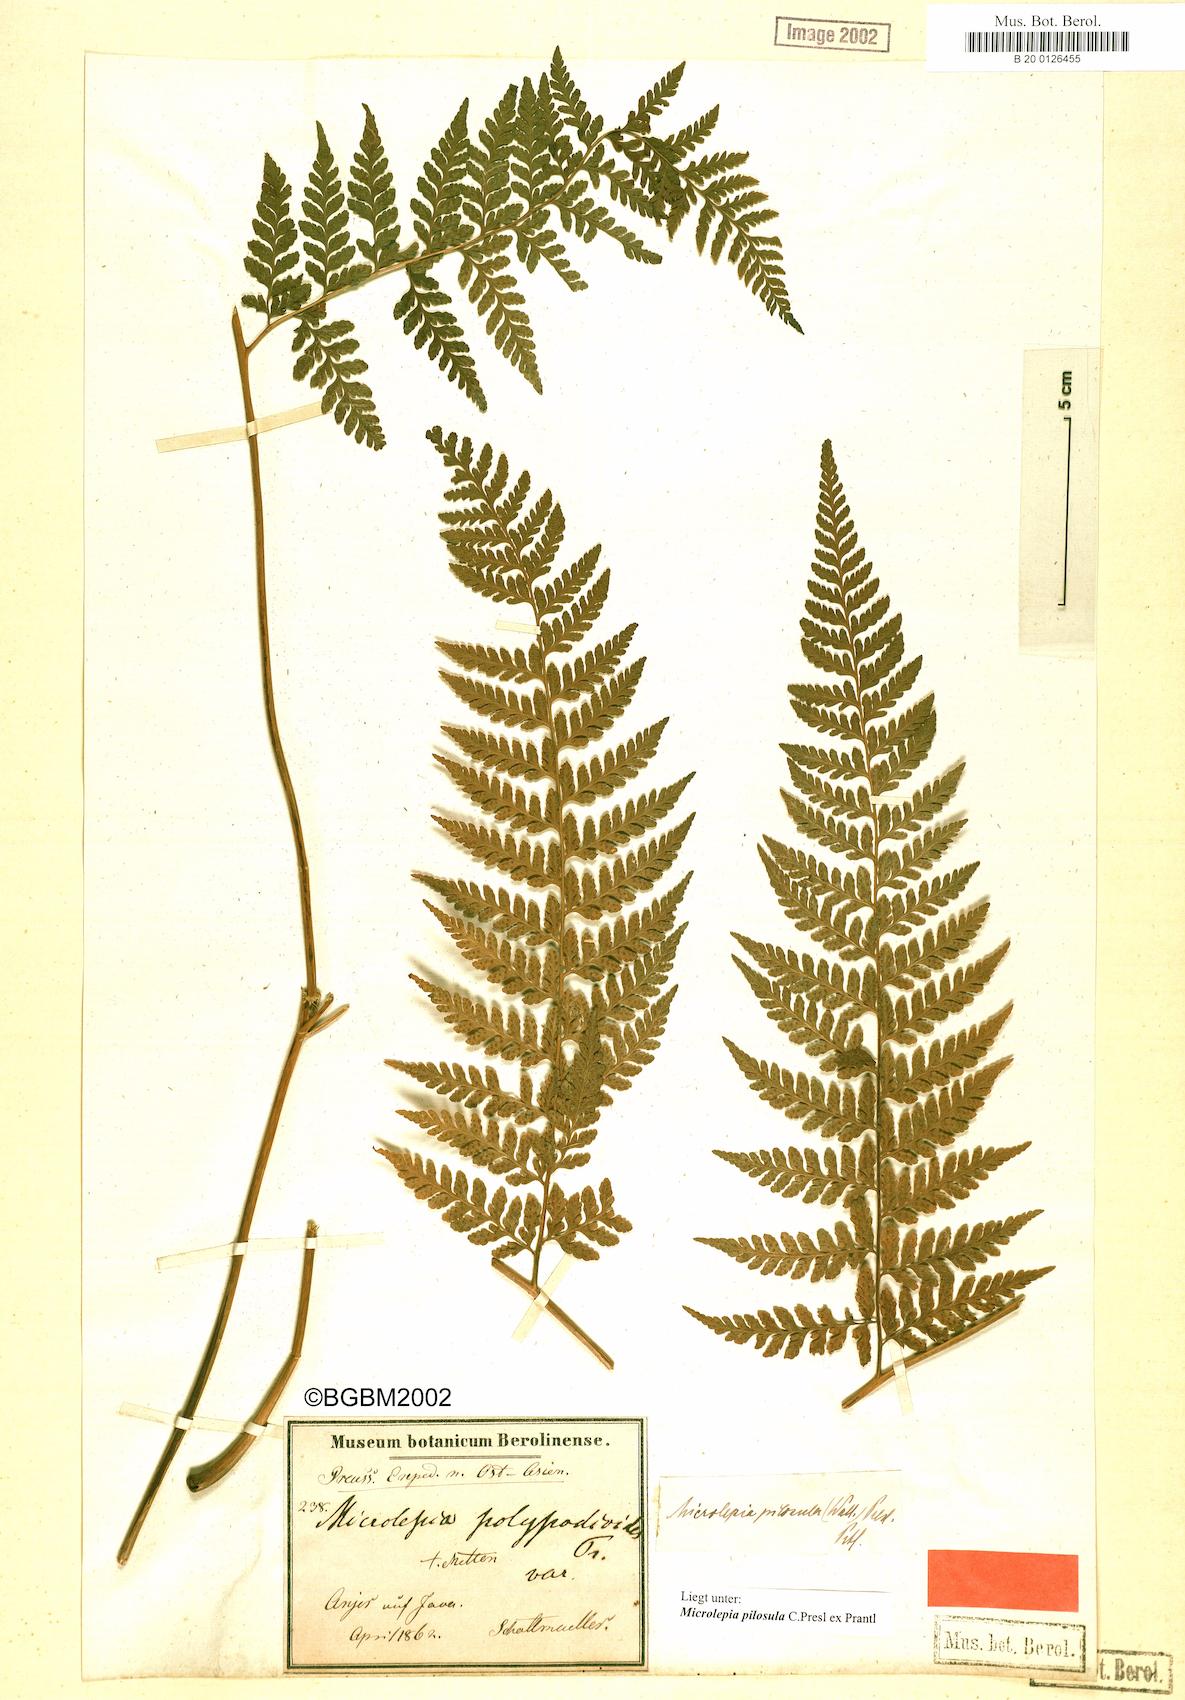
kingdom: Plantae
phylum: Tracheophyta
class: Polypodiopsida
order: Polypodiales
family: Dennstaedtiaceae
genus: Microlepia
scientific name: Microlepia speluncae
